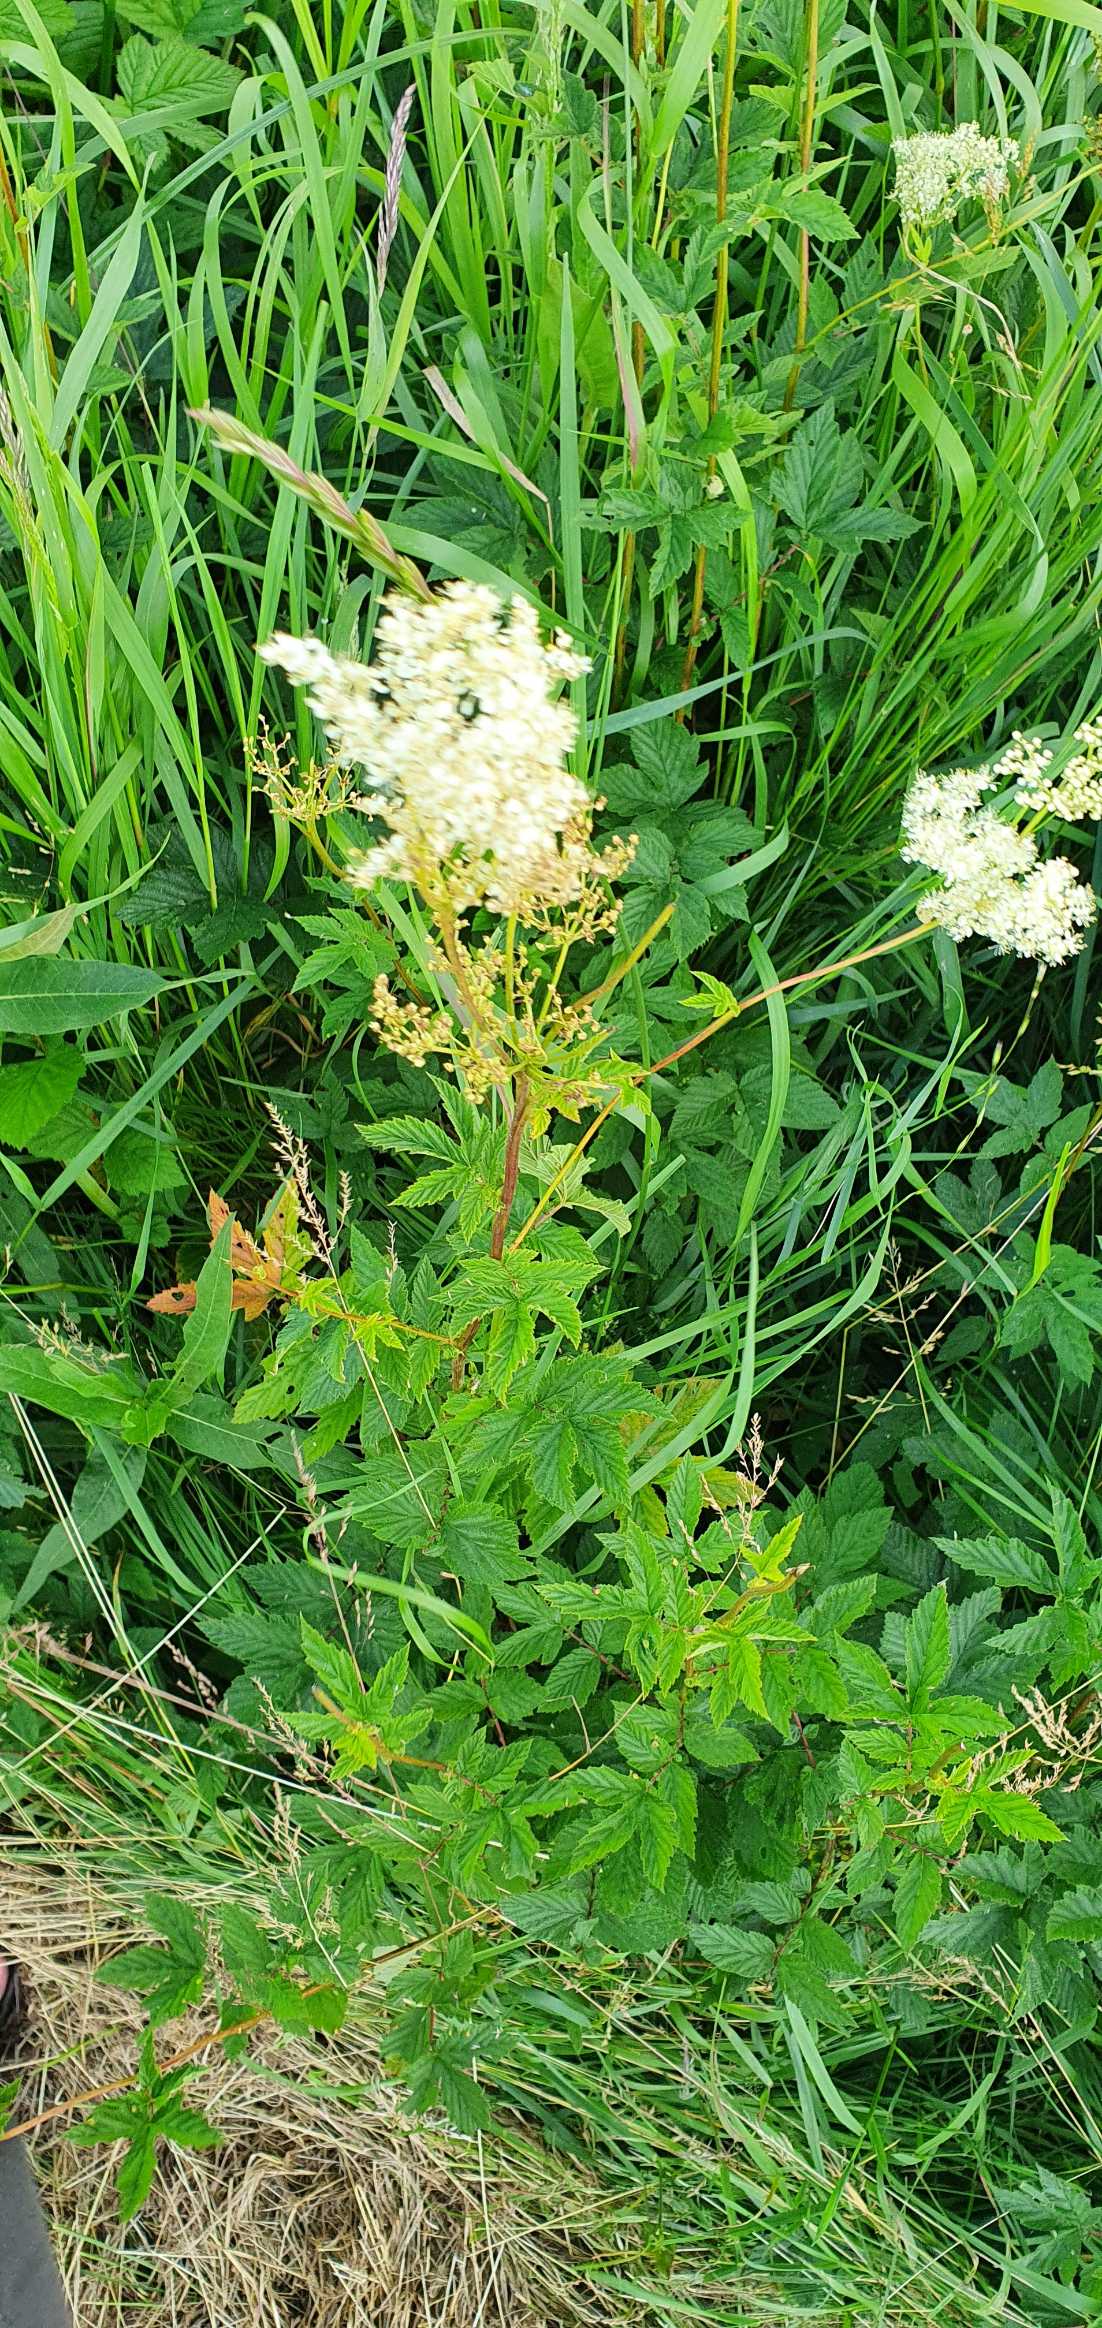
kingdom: Plantae
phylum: Tracheophyta
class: Magnoliopsida
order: Rosales
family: Rosaceae
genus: Filipendula
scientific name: Filipendula ulmaria
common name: Almindelig mjødurt
